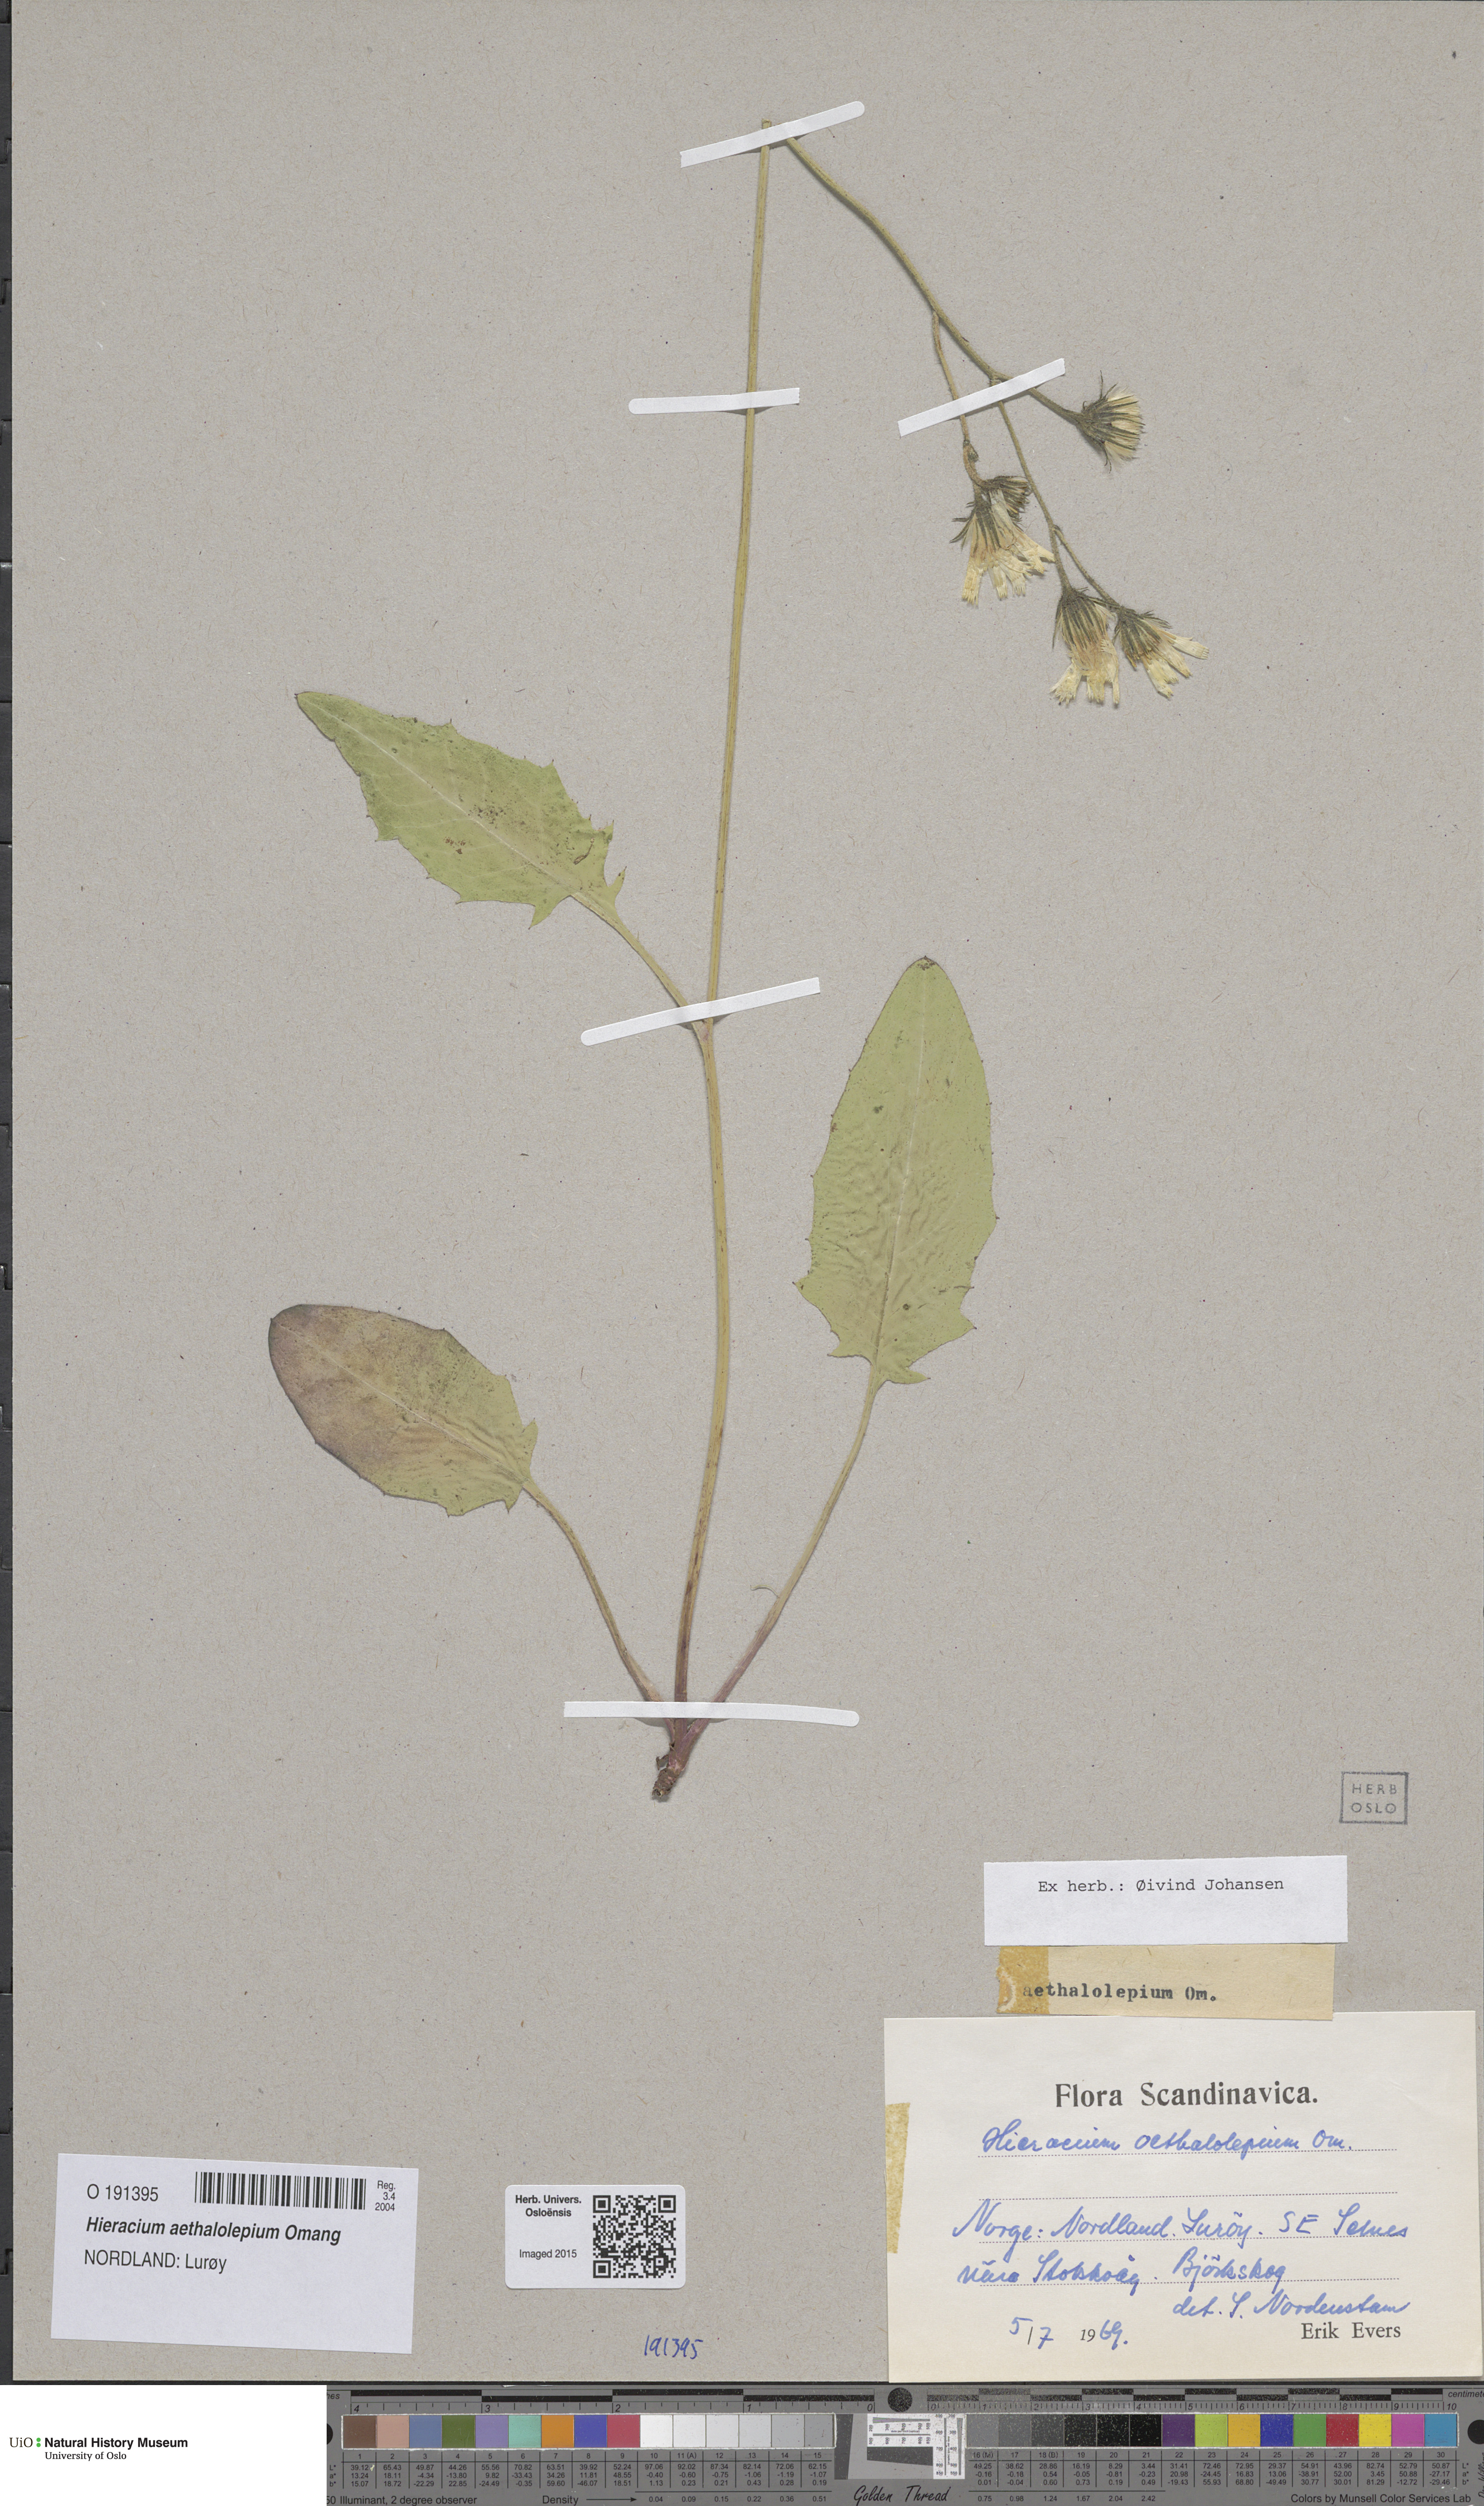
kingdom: Plantae
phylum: Tracheophyta
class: Magnoliopsida
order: Asterales
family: Asteraceae
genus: Hieracium
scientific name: Hieracium aethalolepium
